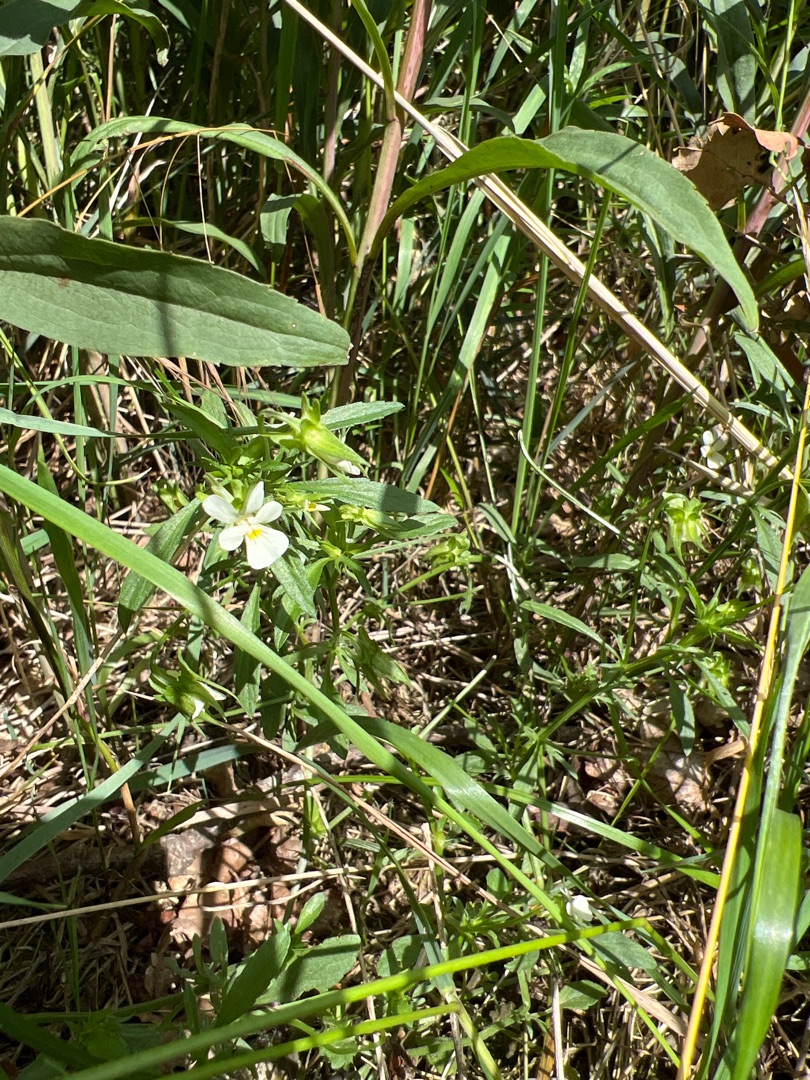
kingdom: Plantae
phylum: Tracheophyta
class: Magnoliopsida
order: Malpighiales
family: Violaceae
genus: Viola
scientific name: Viola arvensis
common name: Ager-stedmoderblomst
